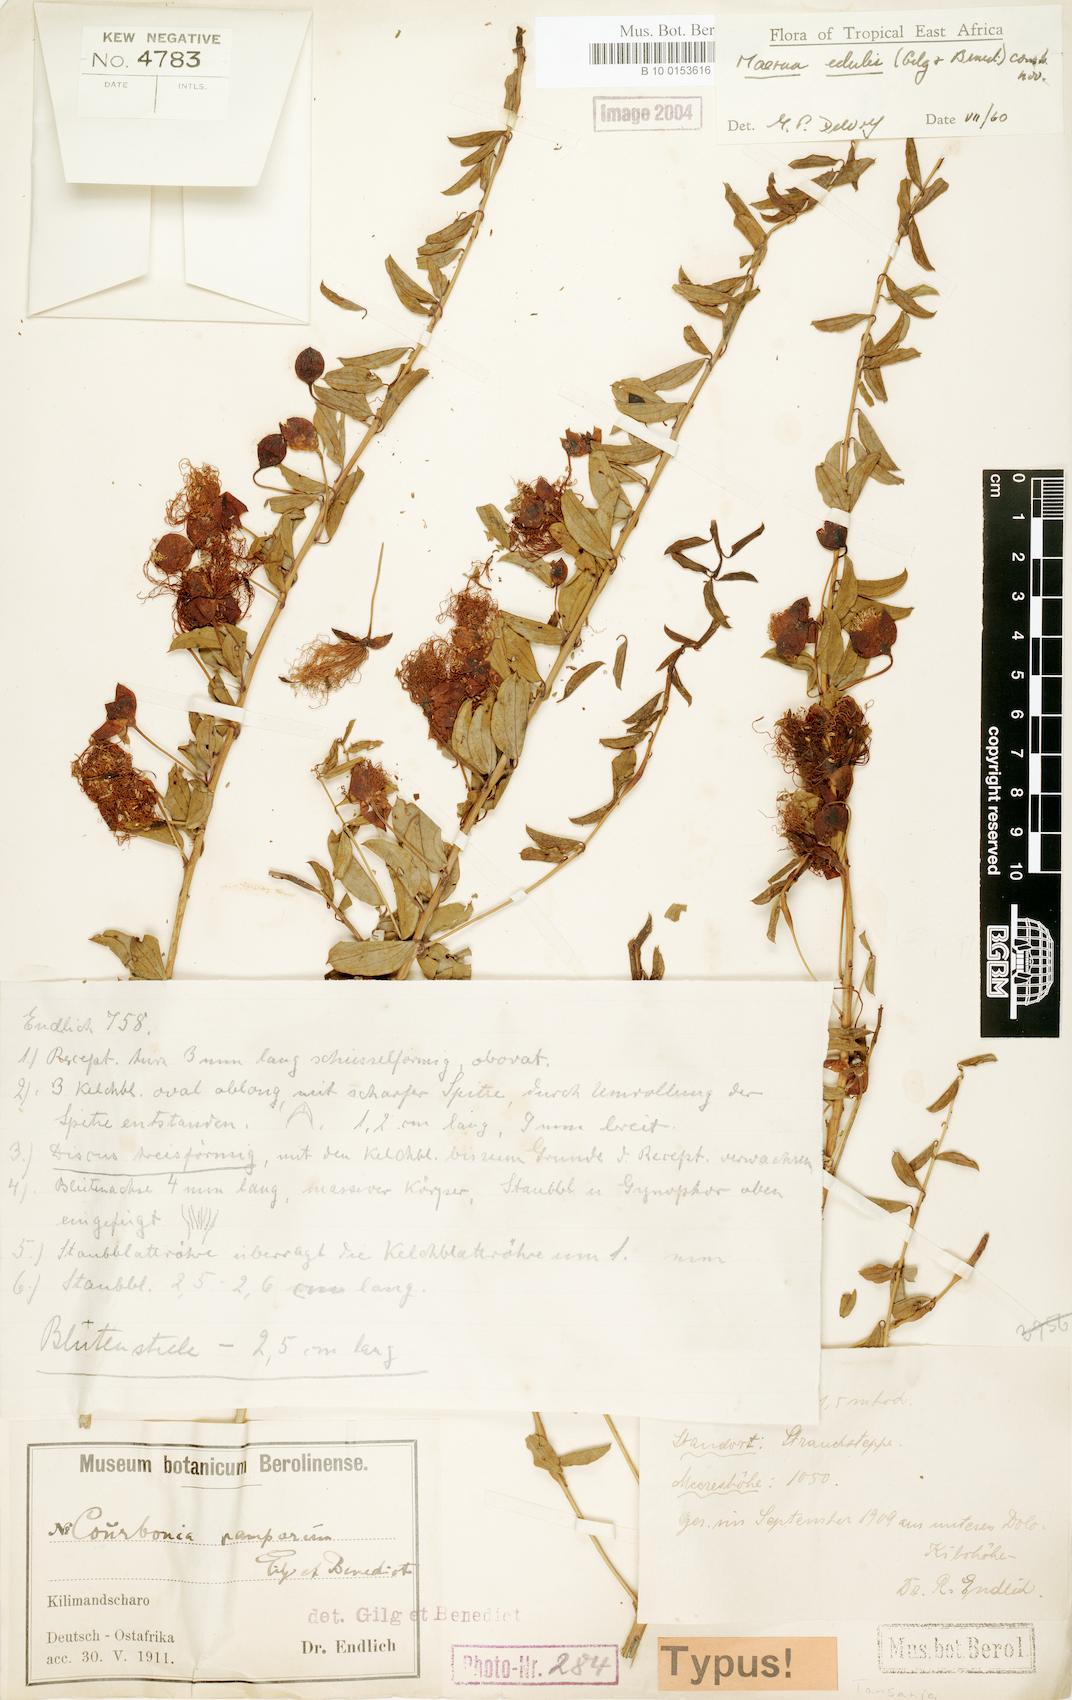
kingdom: Plantae
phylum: Tracheophyta
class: Magnoliopsida
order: Brassicales
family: Capparaceae
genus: Maerua
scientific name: Maerua edulis
